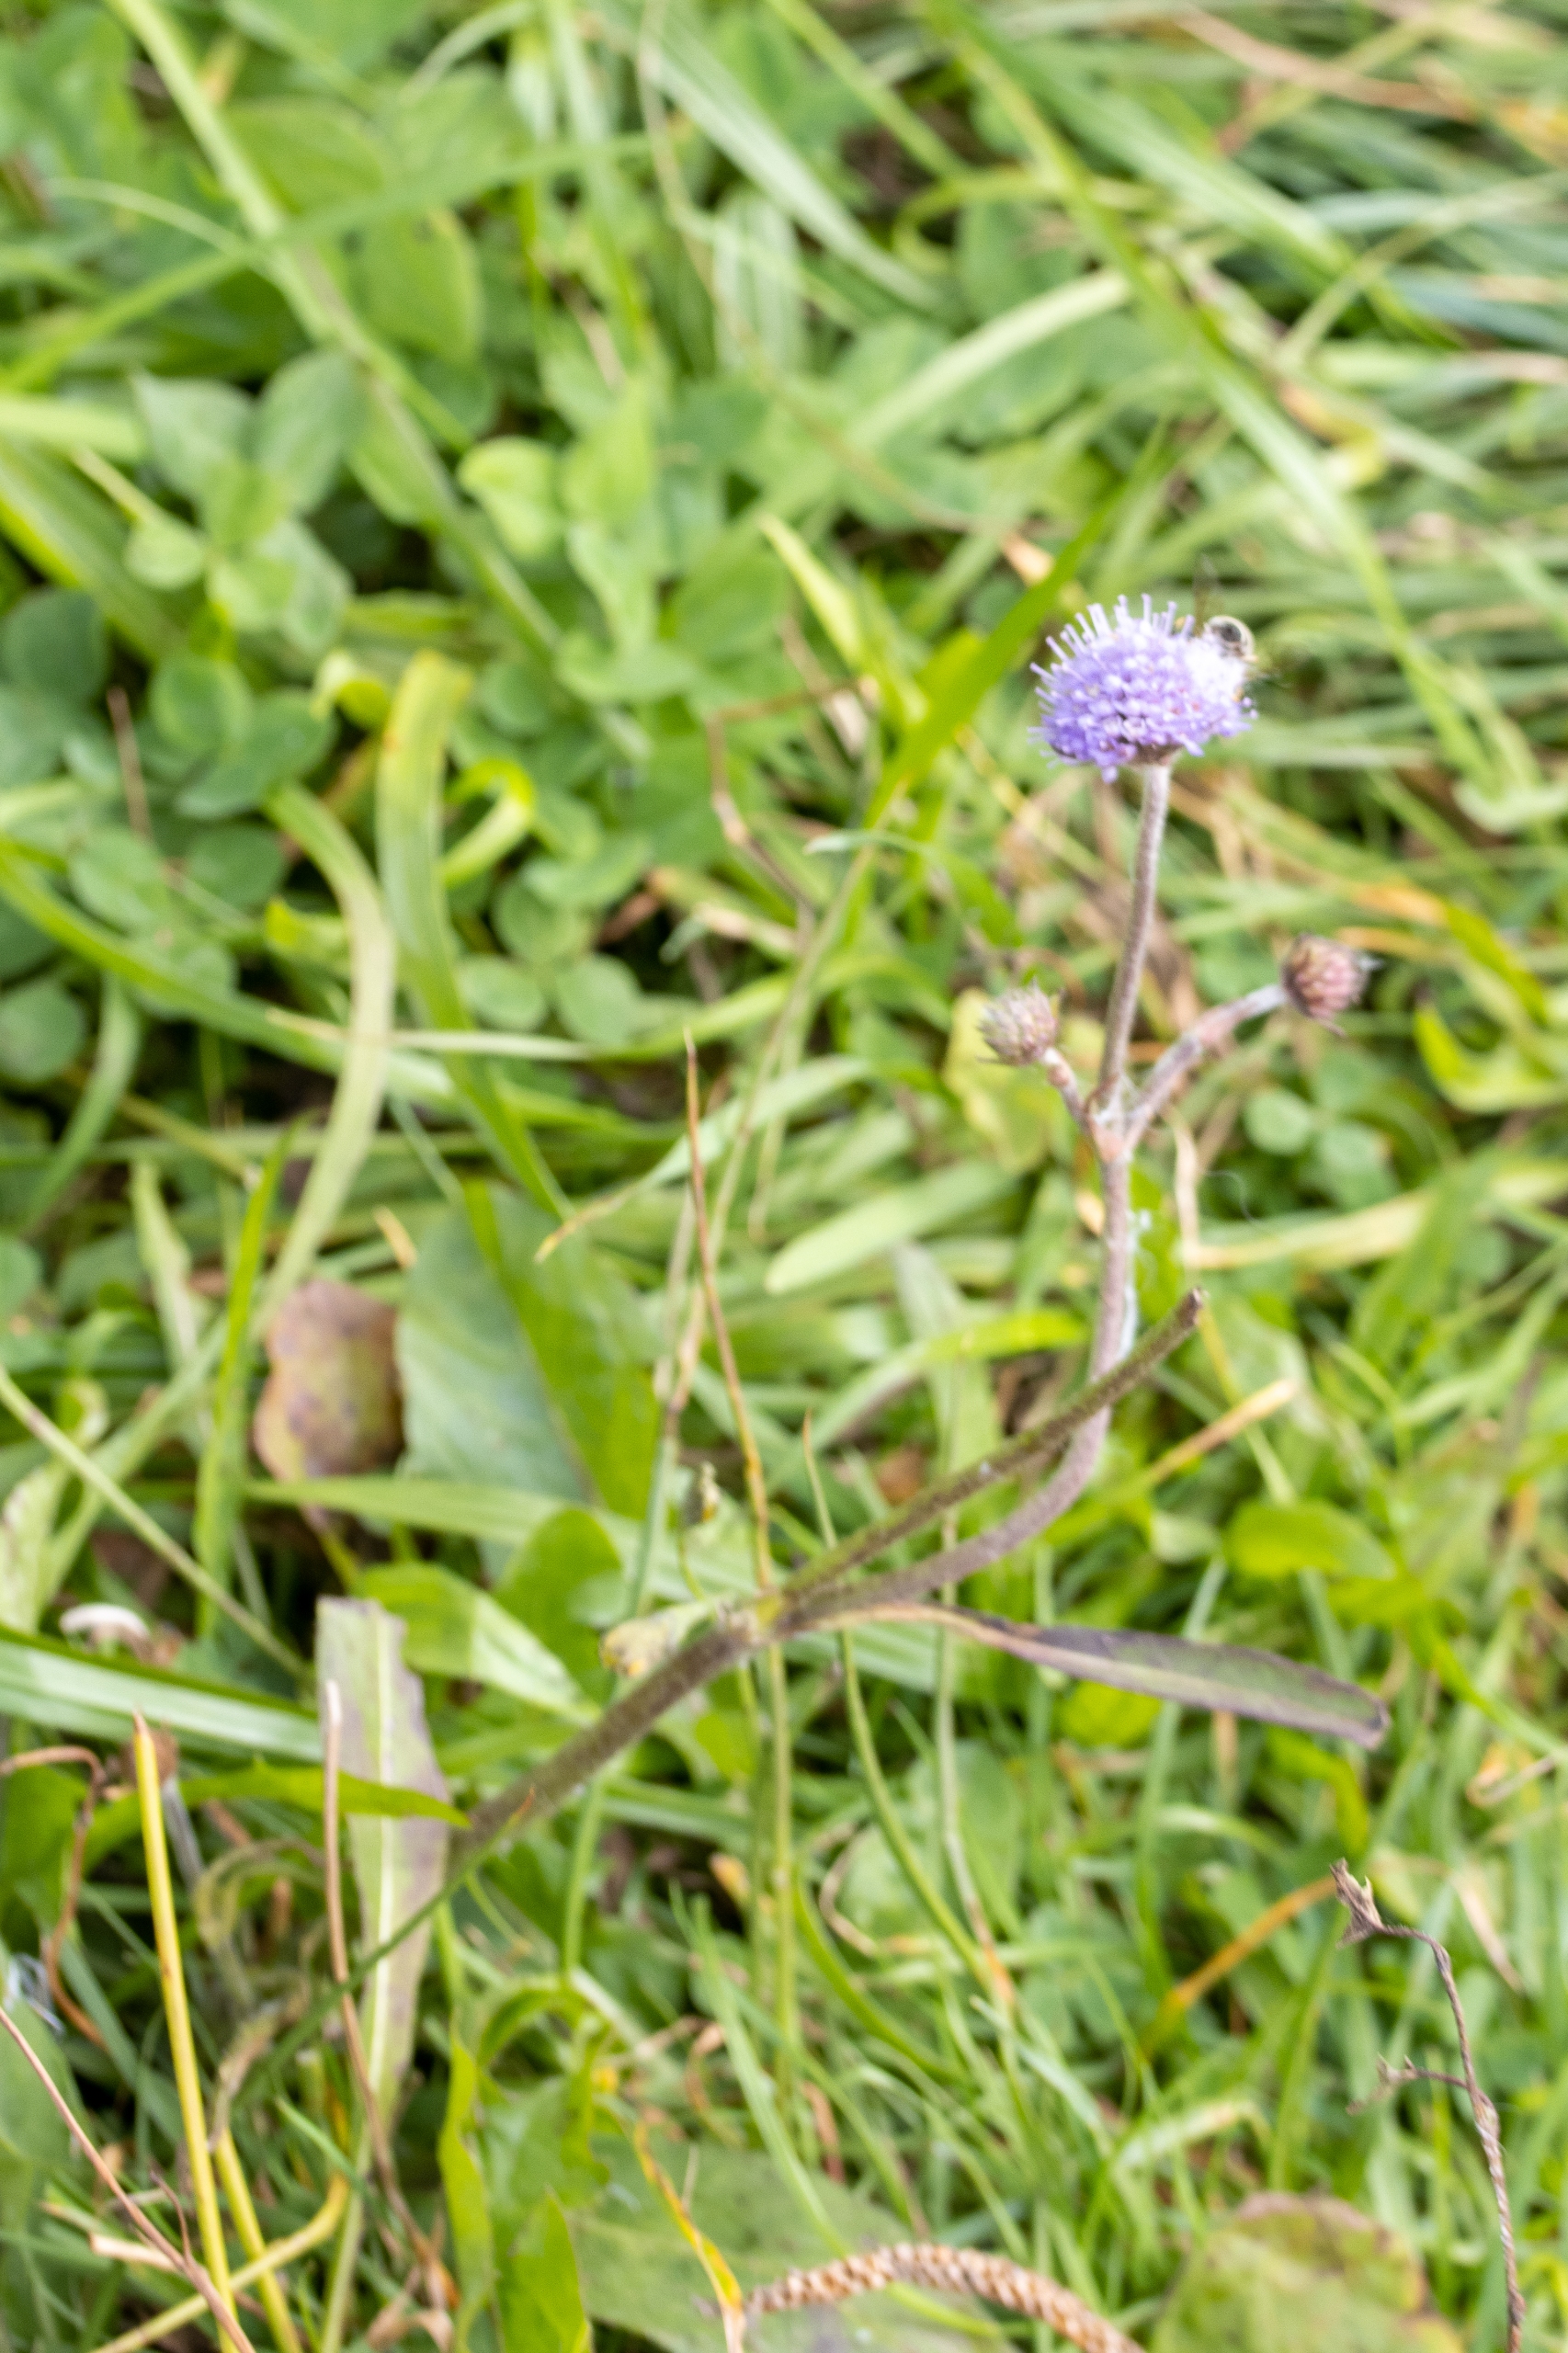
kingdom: Plantae
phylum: Tracheophyta
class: Magnoliopsida
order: Dipsacales
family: Caprifoliaceae
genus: Succisa
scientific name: Succisa pratensis
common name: Djævelsbid
